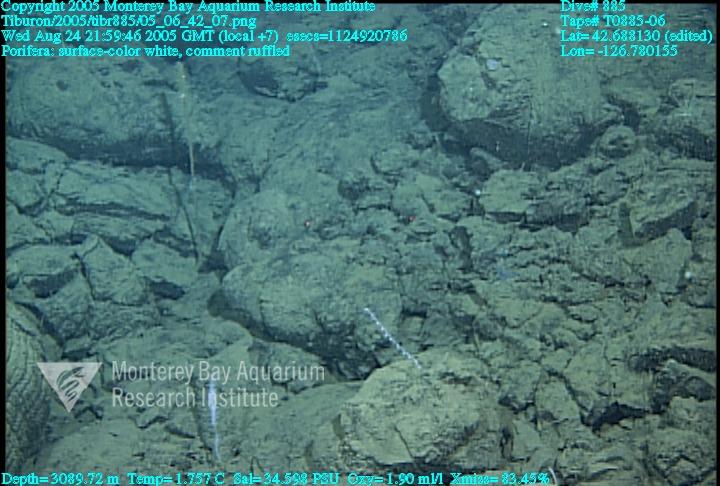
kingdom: Animalia
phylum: Porifera
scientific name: Porifera
